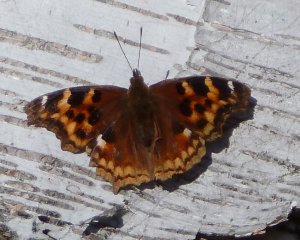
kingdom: Animalia
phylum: Arthropoda
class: Insecta
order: Lepidoptera
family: Nymphalidae
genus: Polygonia
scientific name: Polygonia vaualbum
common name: Compton Tortoiseshell
